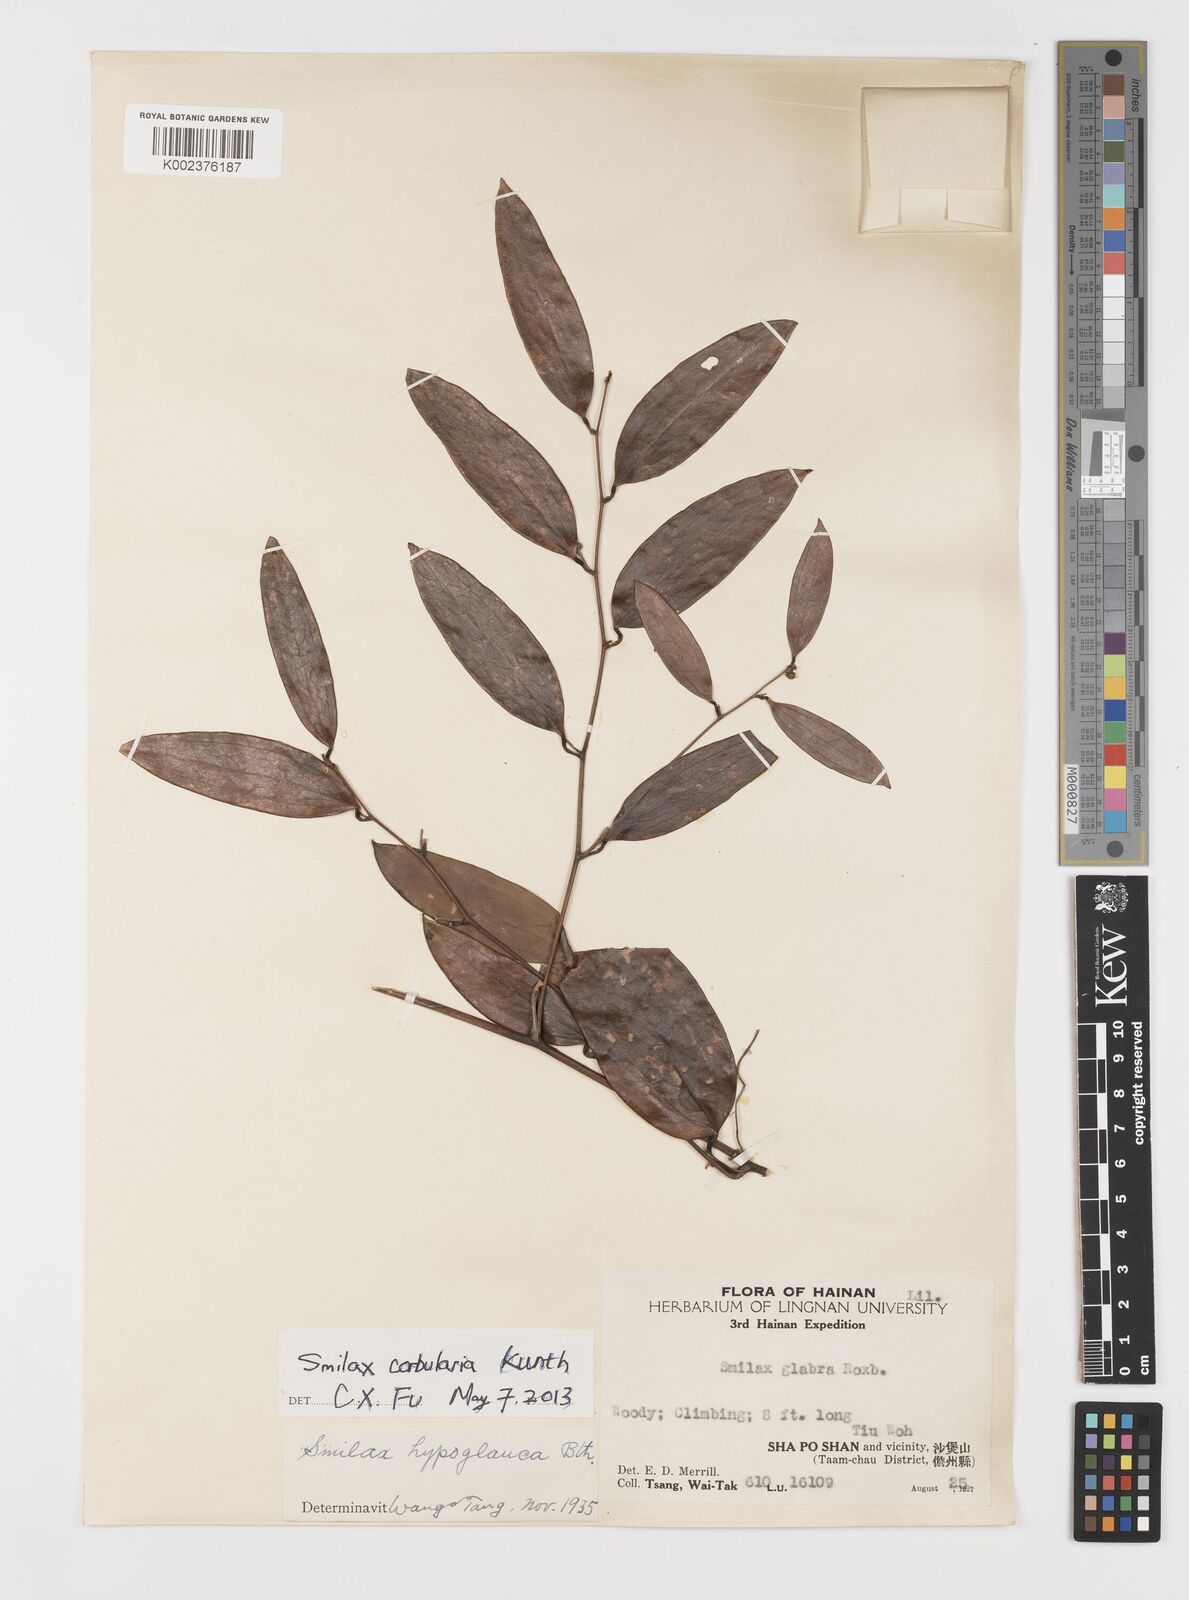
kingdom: Plantae
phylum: Tracheophyta
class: Liliopsida
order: Liliales
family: Smilacaceae
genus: Smilax
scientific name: Smilax corbularia
